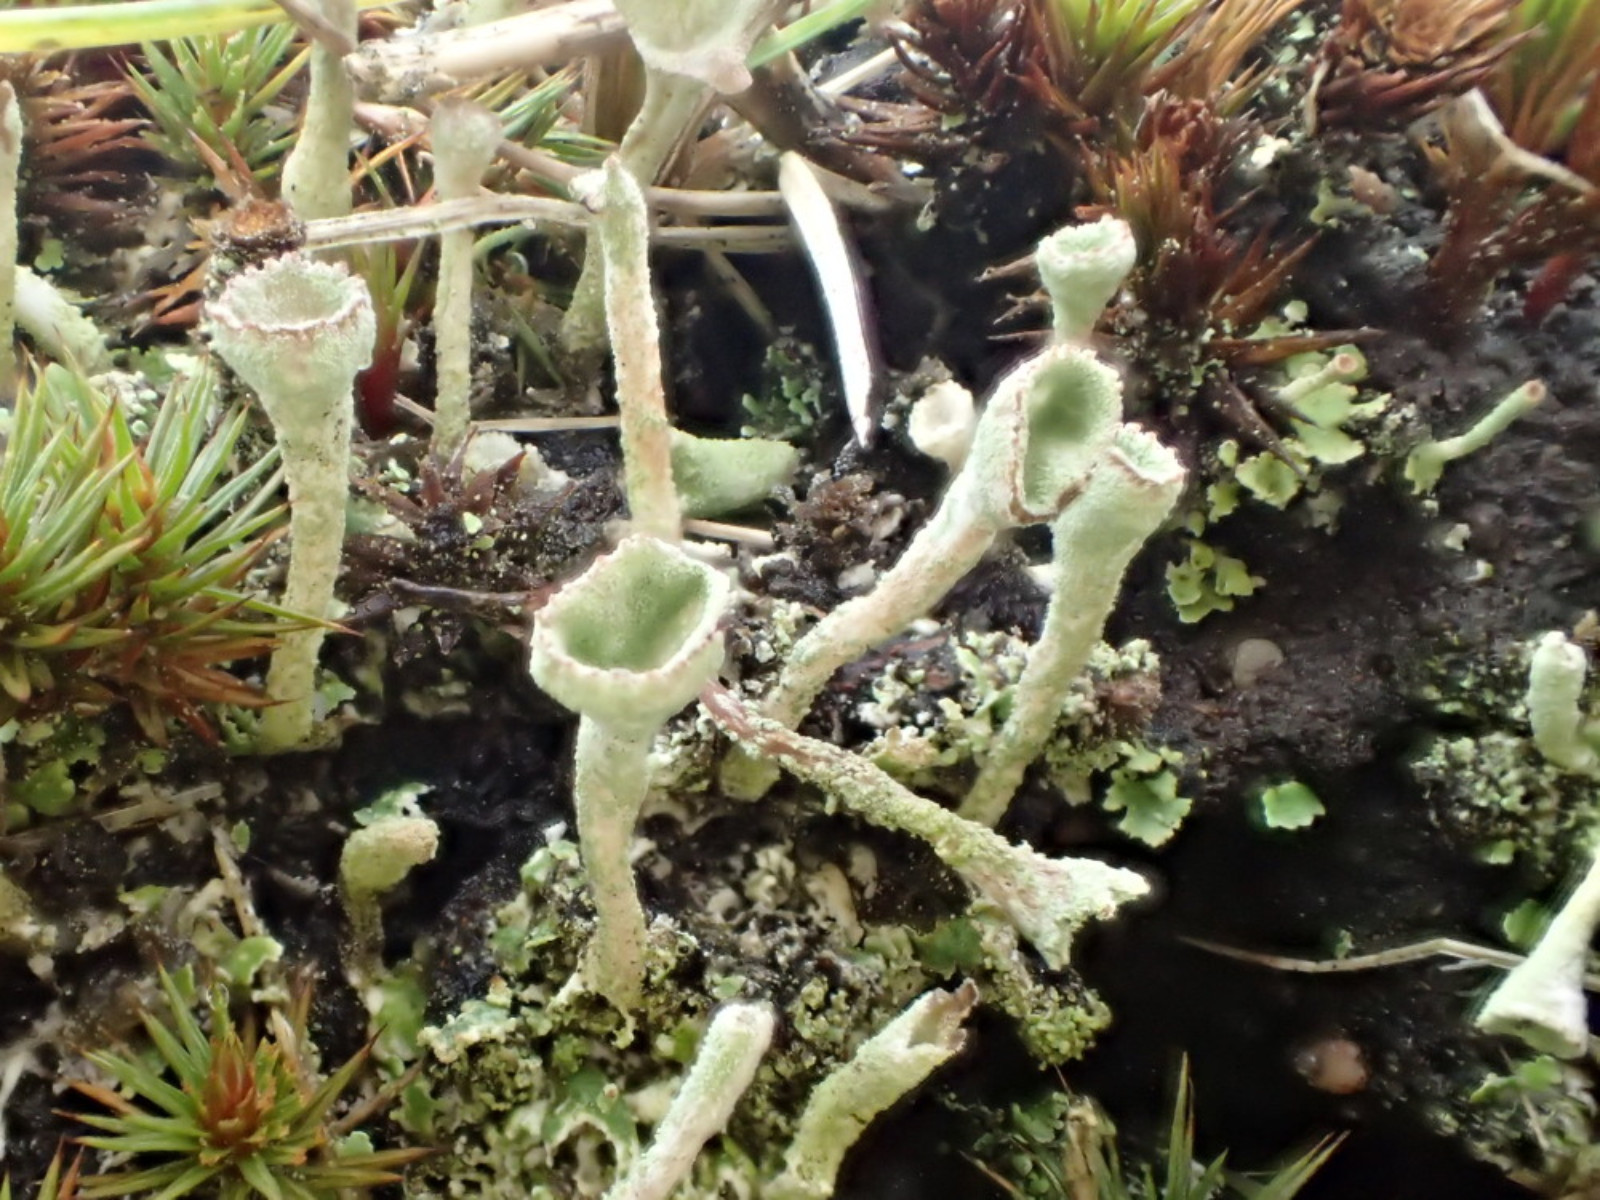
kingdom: Fungi
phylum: Ascomycota
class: Lecanoromycetes
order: Lecanorales
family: Cladoniaceae
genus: Cladonia
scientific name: Cladonia fimbriata
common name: bleggrøn bægerlav
